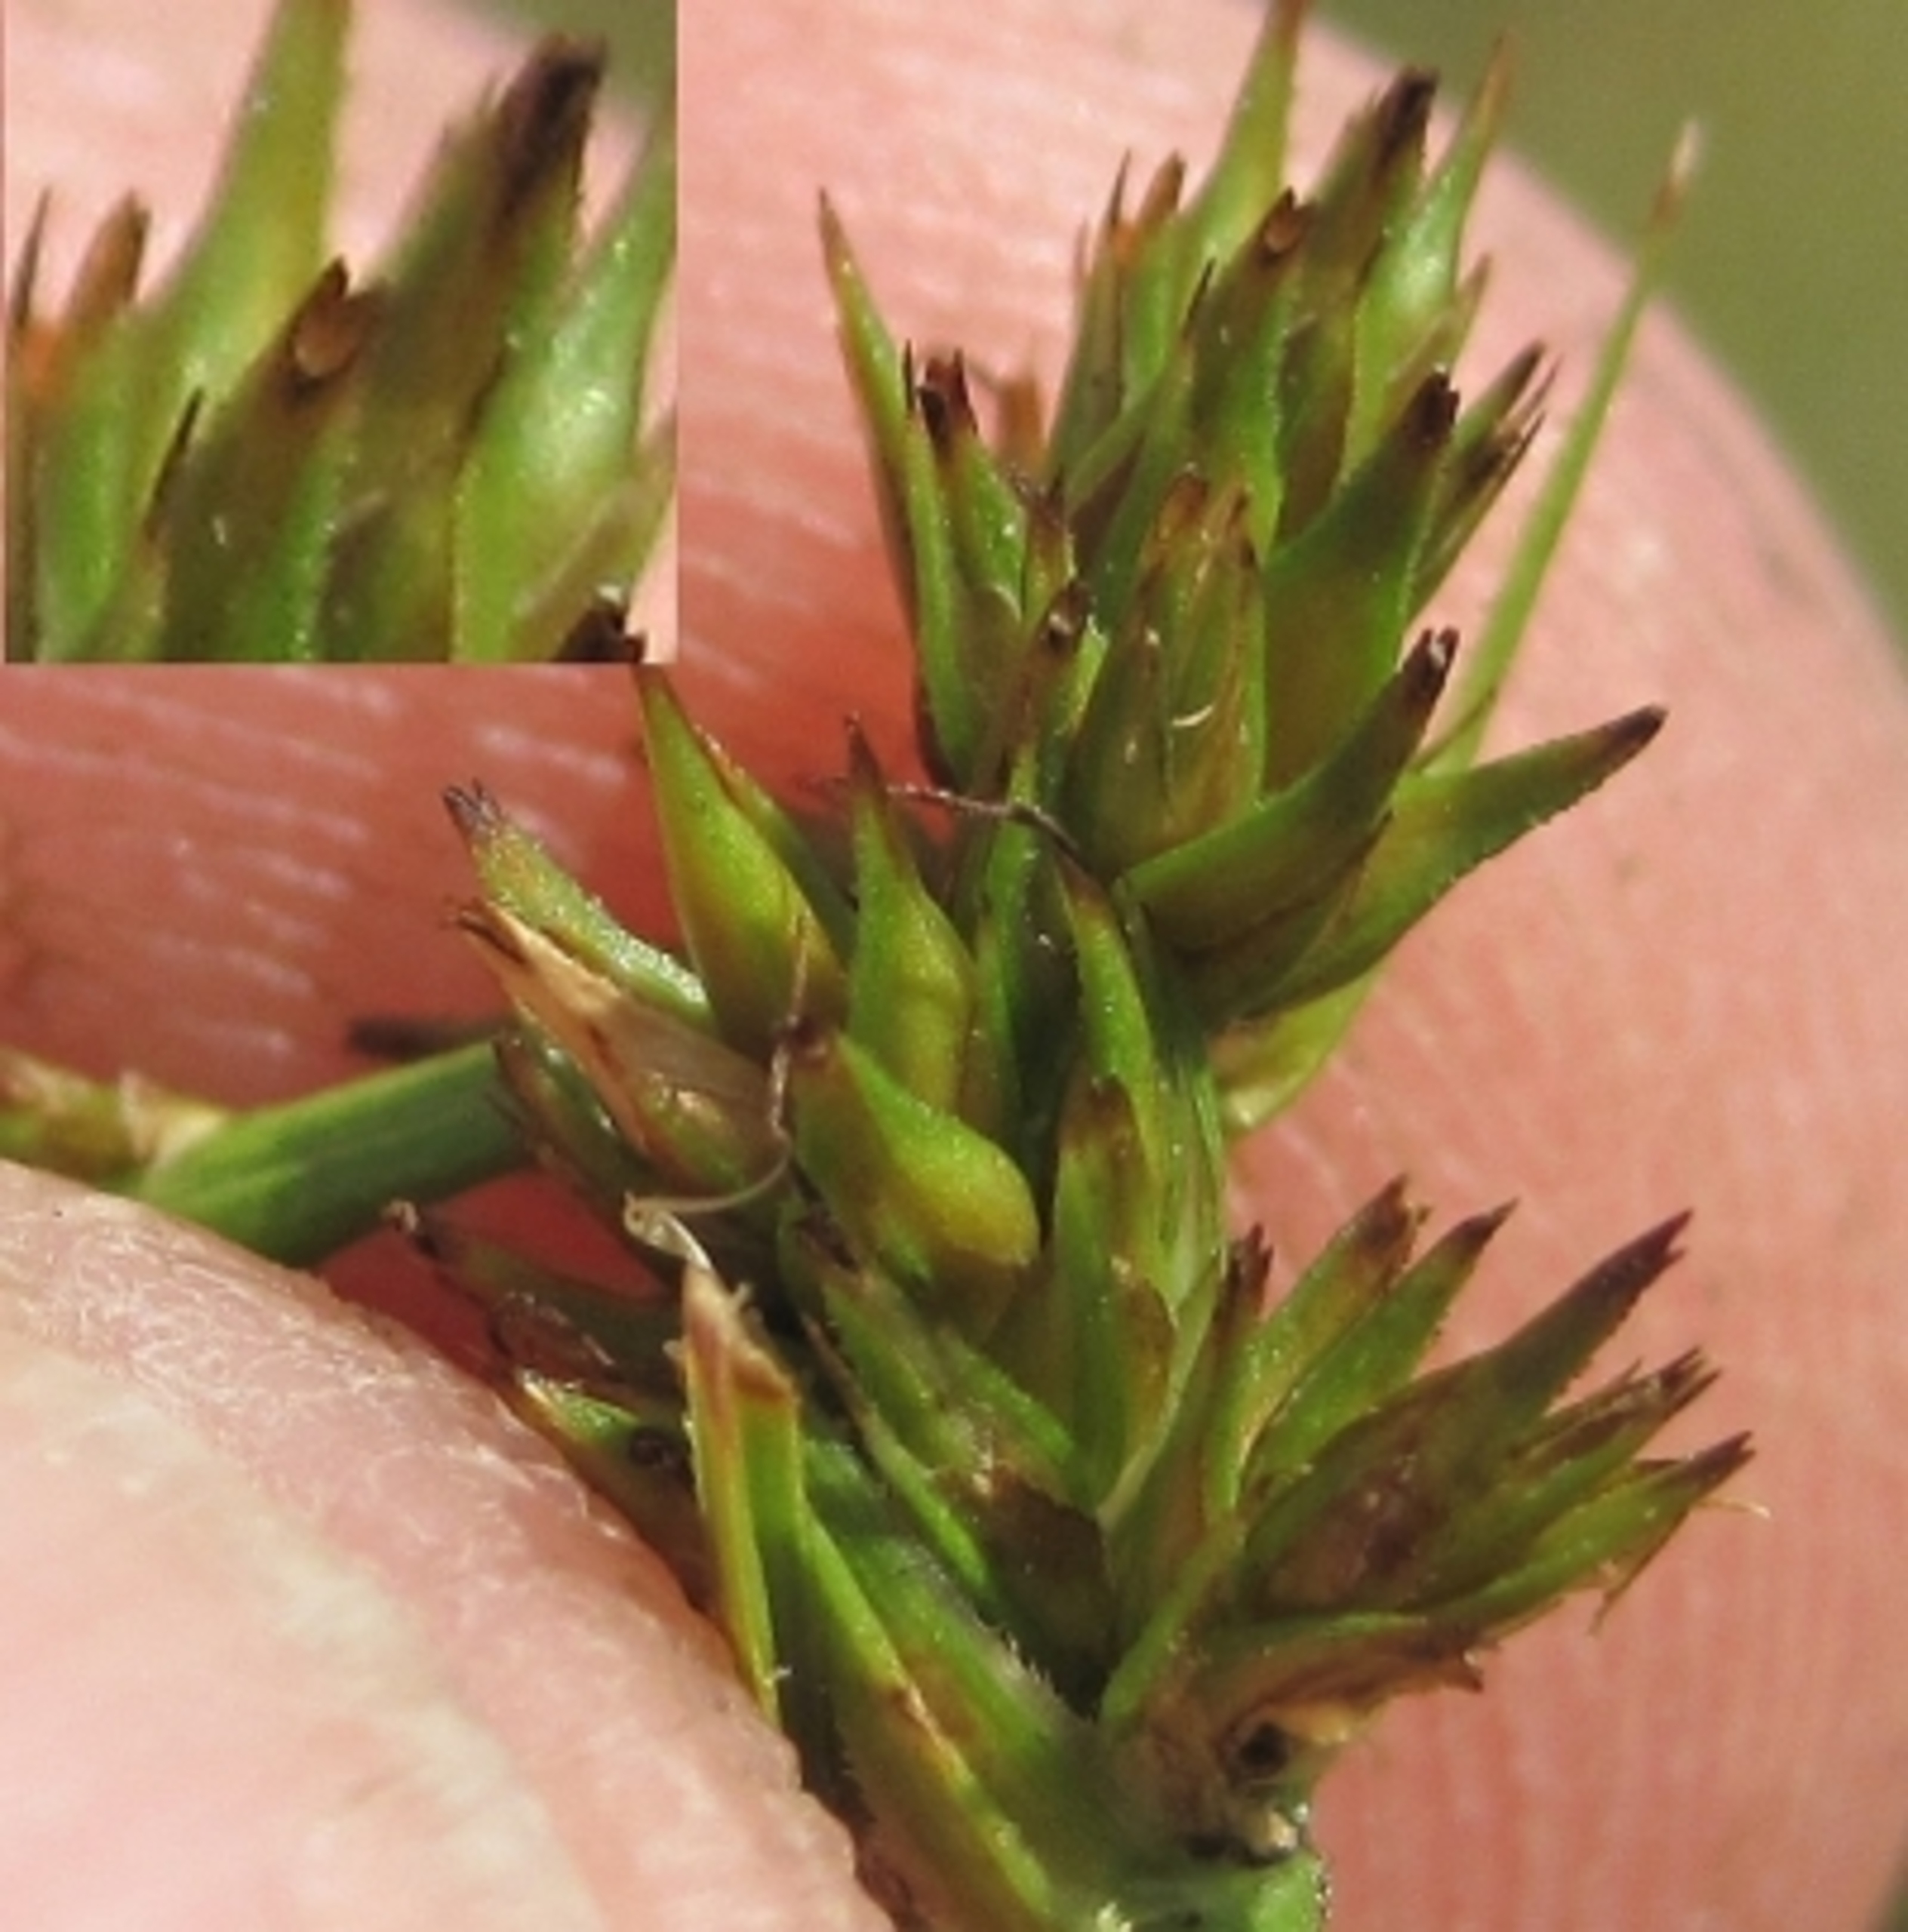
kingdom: Plantae
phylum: Tracheophyta
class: Liliopsida
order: Poales
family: Cyperaceae
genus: Carex
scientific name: Carex vulpina
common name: Ræve-star
